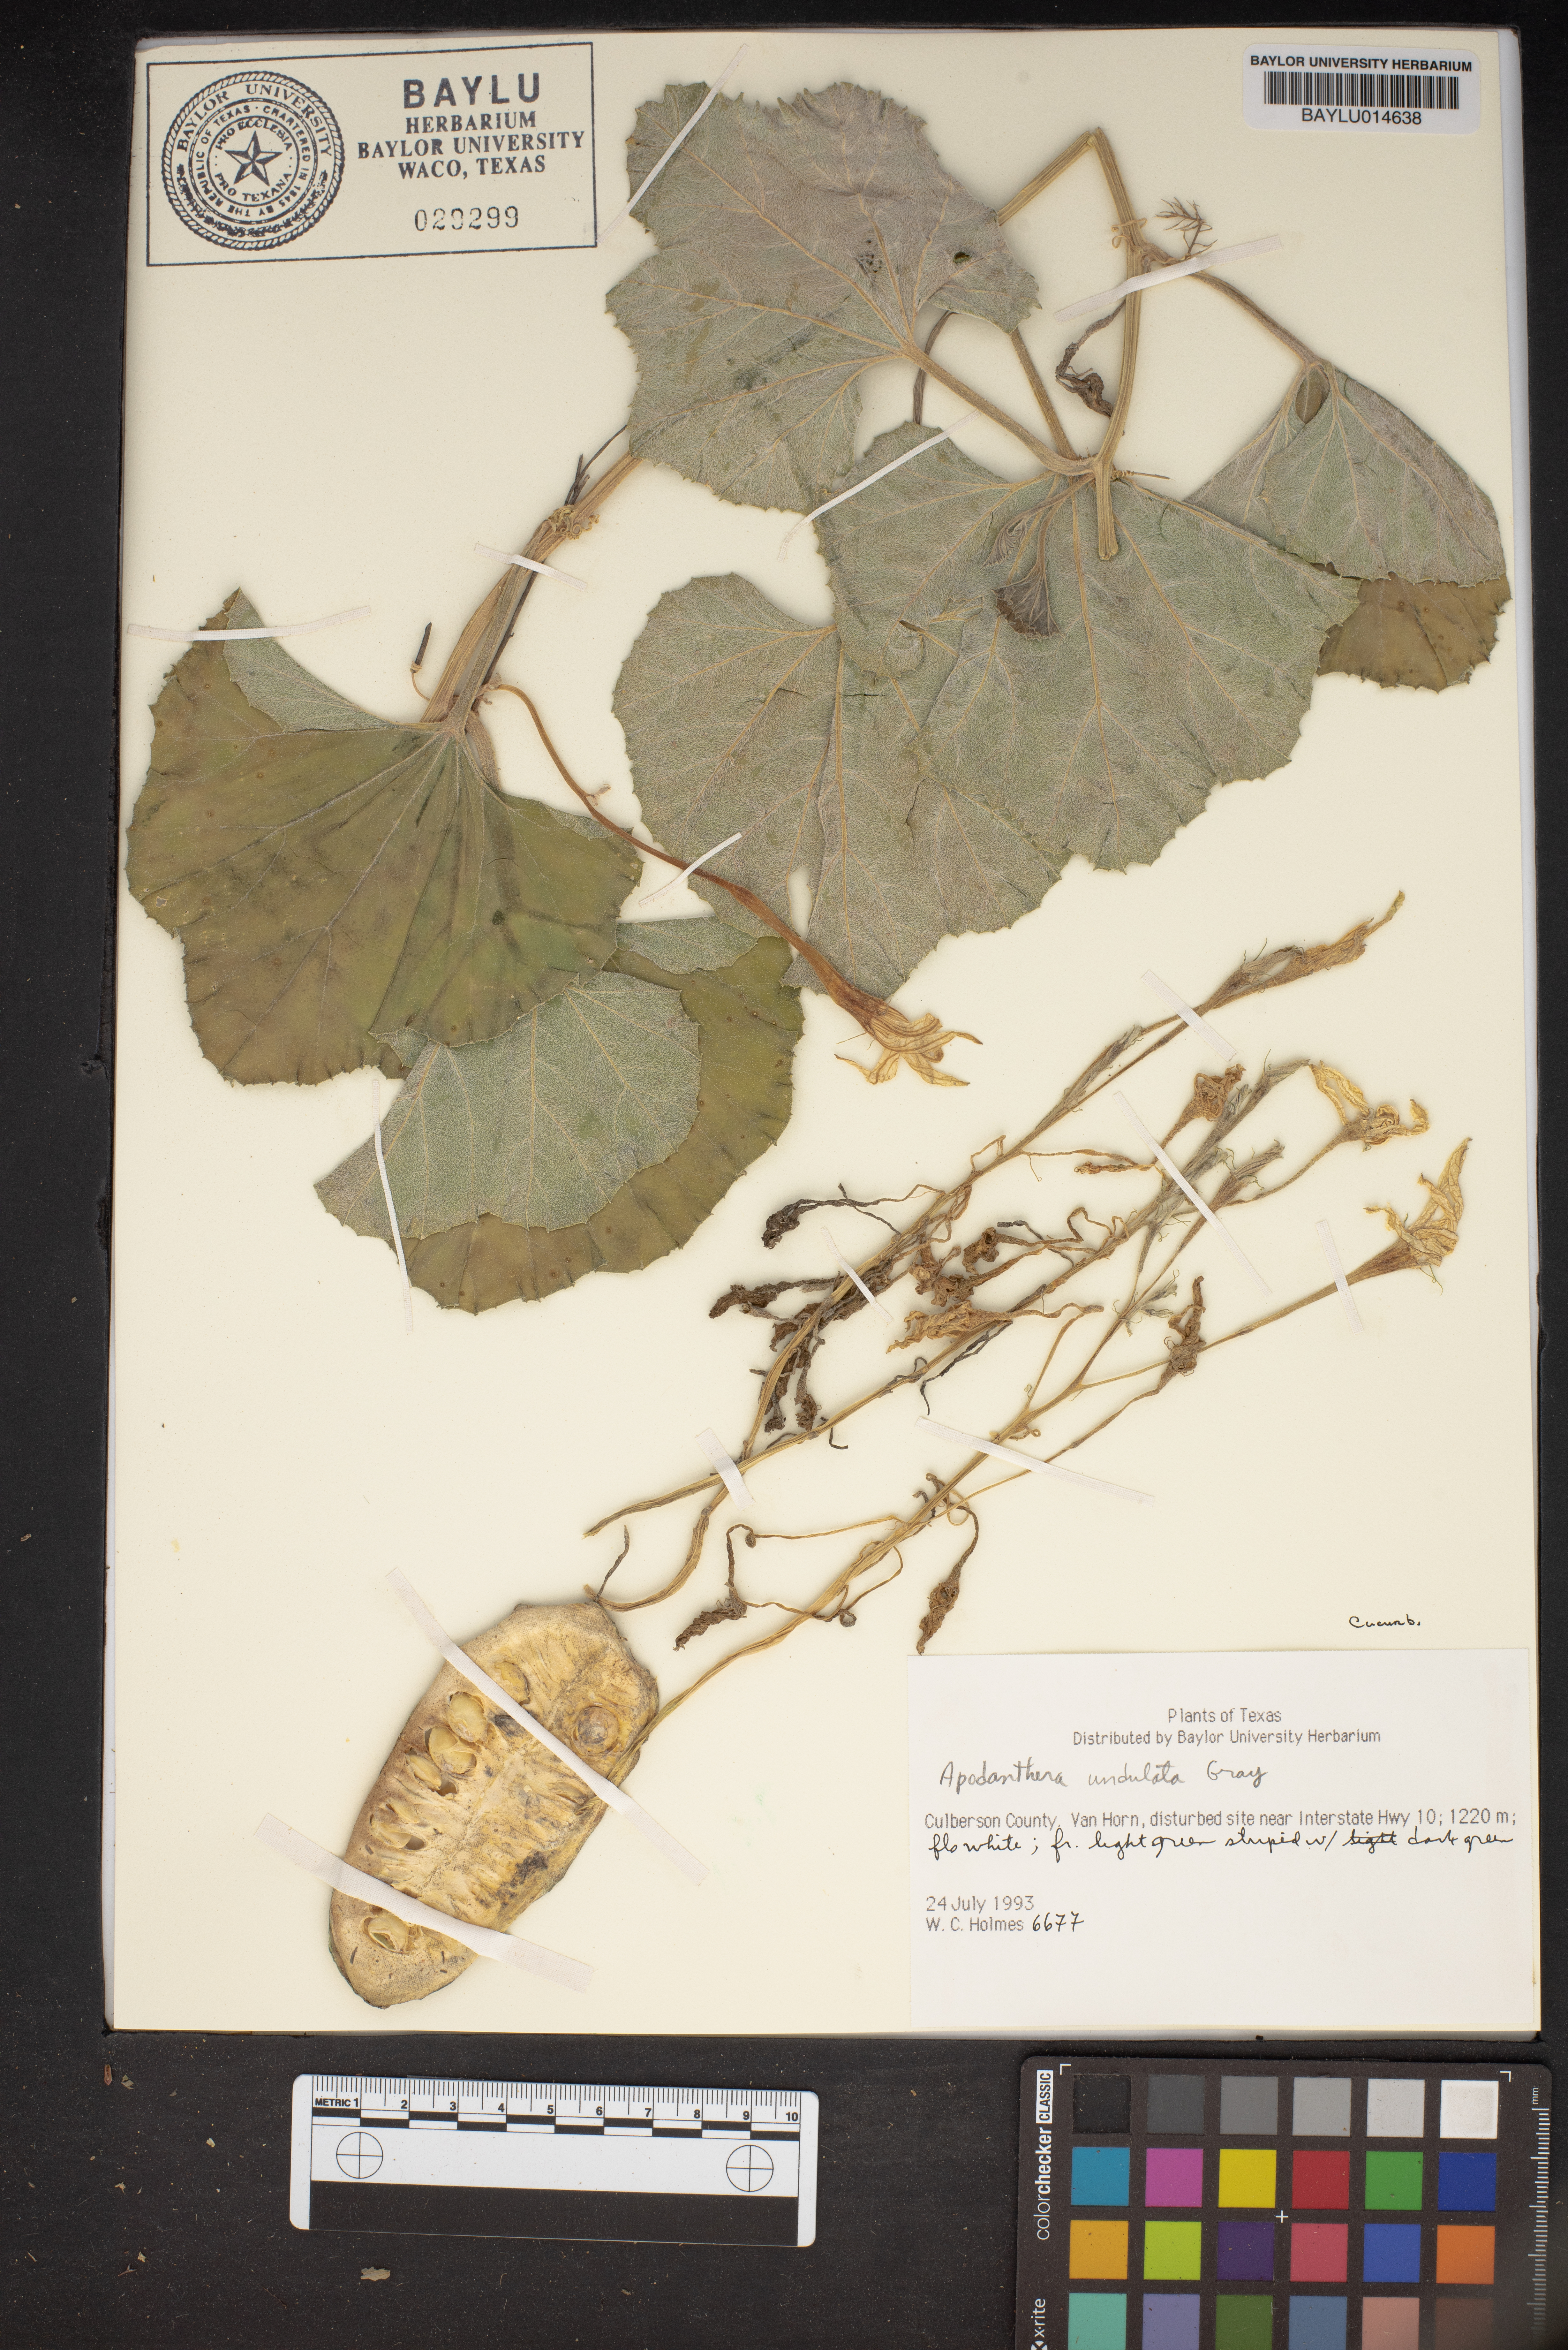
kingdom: Plantae
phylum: Tracheophyta
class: Magnoliopsida
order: Cucurbitales
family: Cucurbitaceae
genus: Apodanthera
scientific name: Apodanthera undulata
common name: Melon-loco
